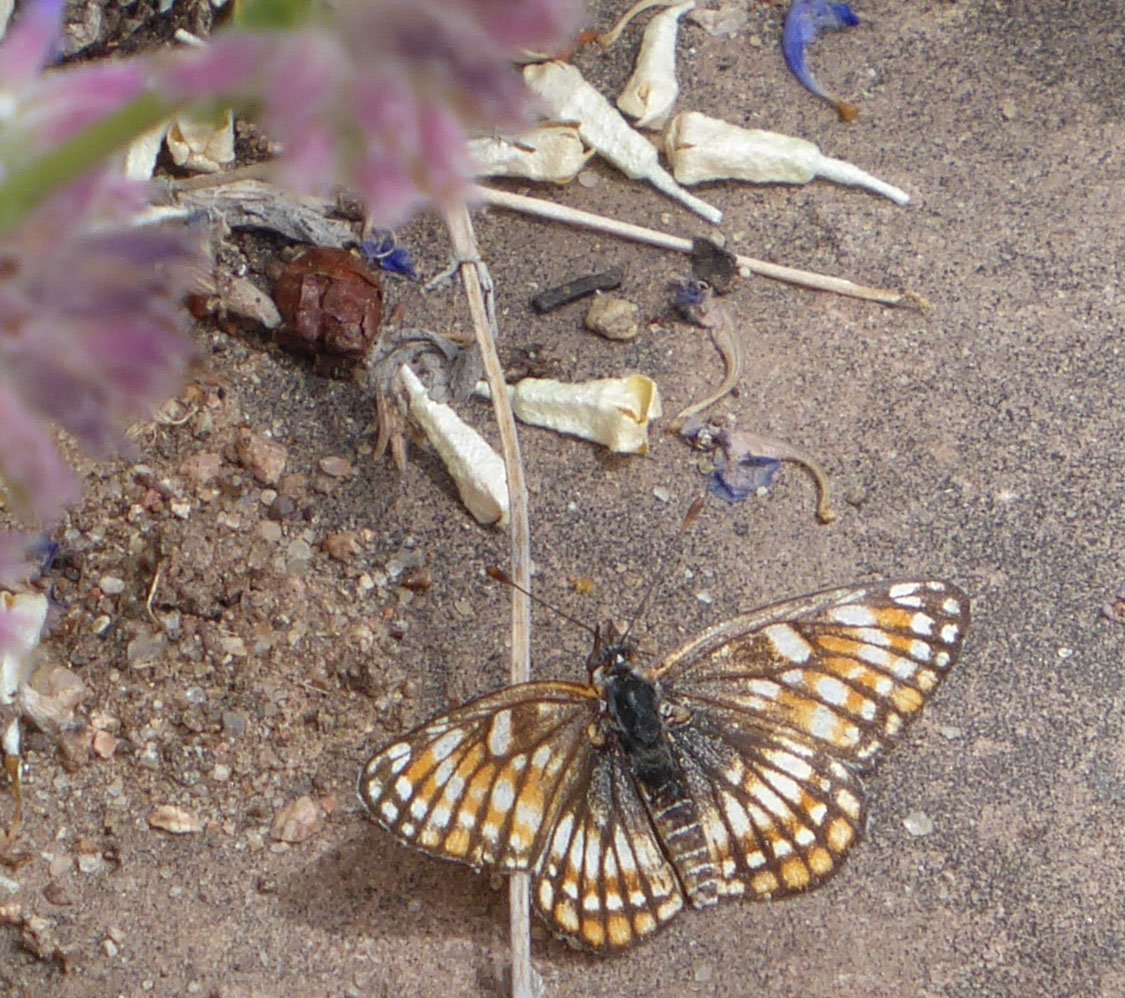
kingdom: Animalia
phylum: Arthropoda
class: Insecta
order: Lepidoptera
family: Nymphalidae
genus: Thessalia
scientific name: Thessalia leanira
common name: Fulvia Checkerspot
